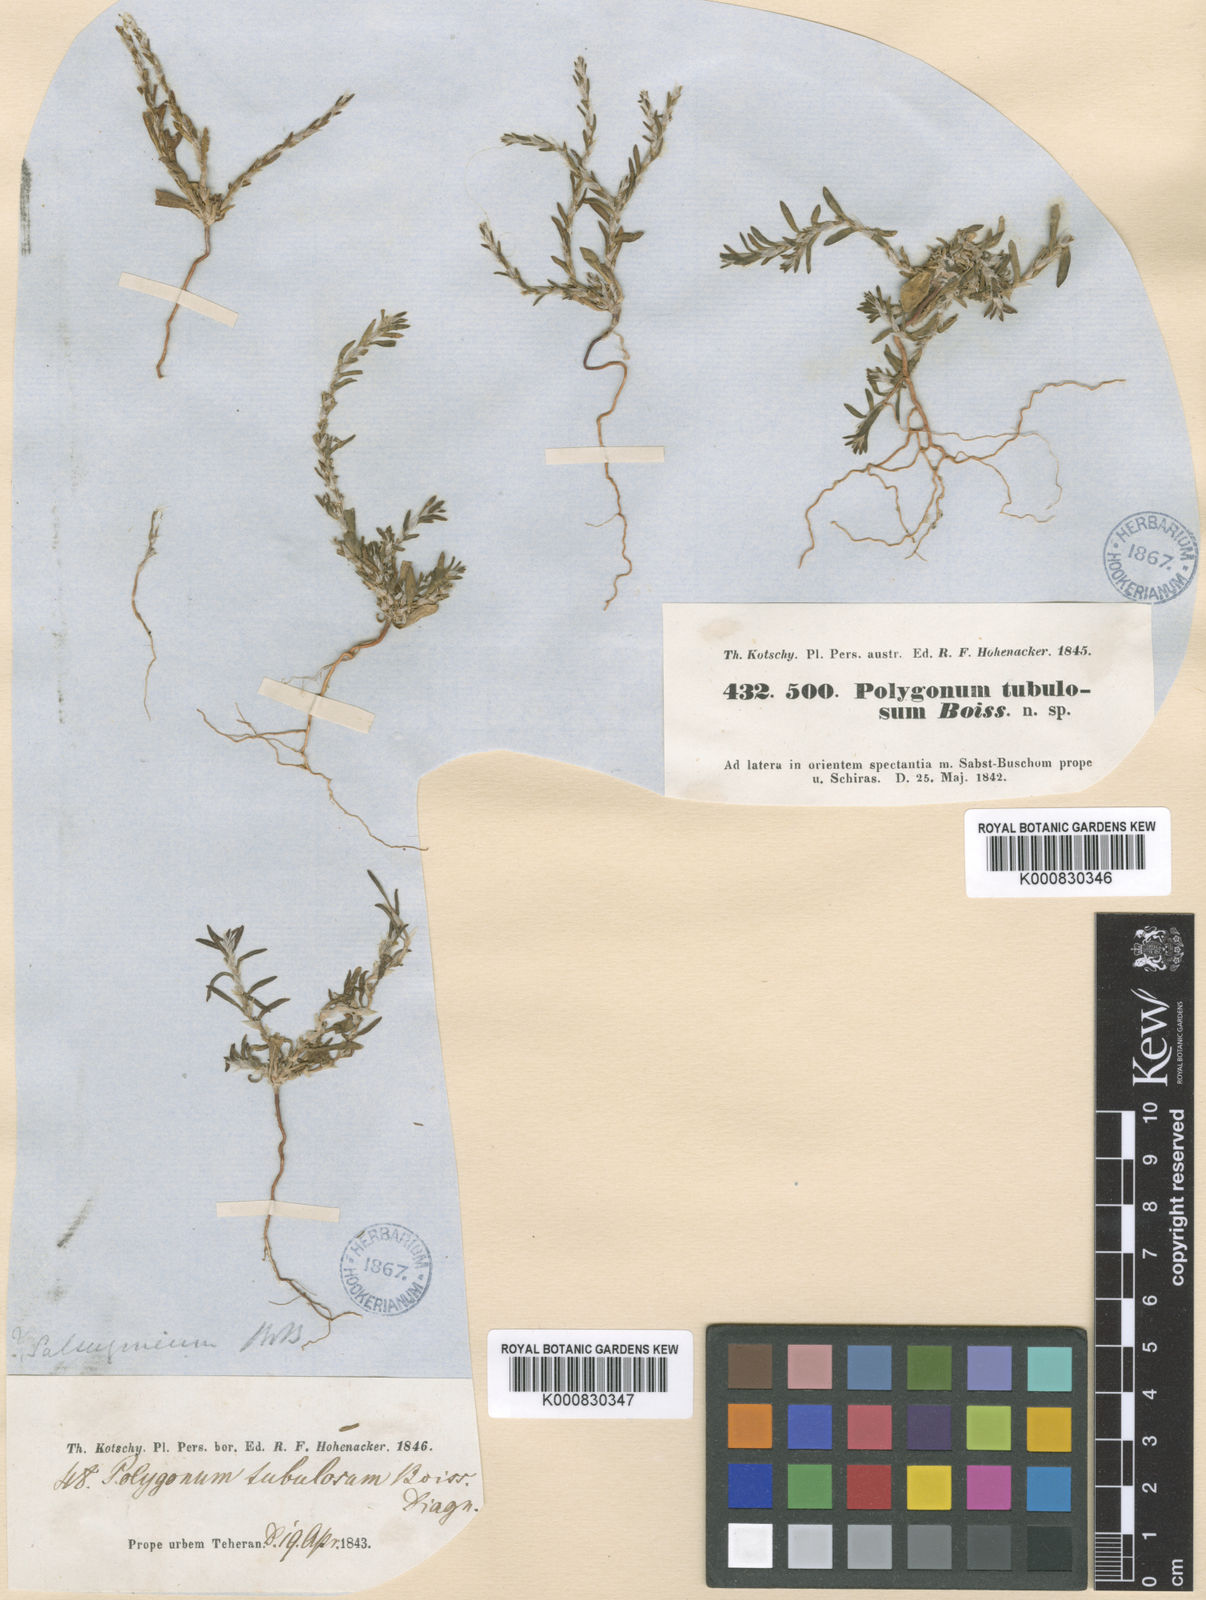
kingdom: Plantae
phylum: Tracheophyta
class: Magnoliopsida
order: Caryophyllales
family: Polygonaceae
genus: Polygonum
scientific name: Polygonum rottboellioides
